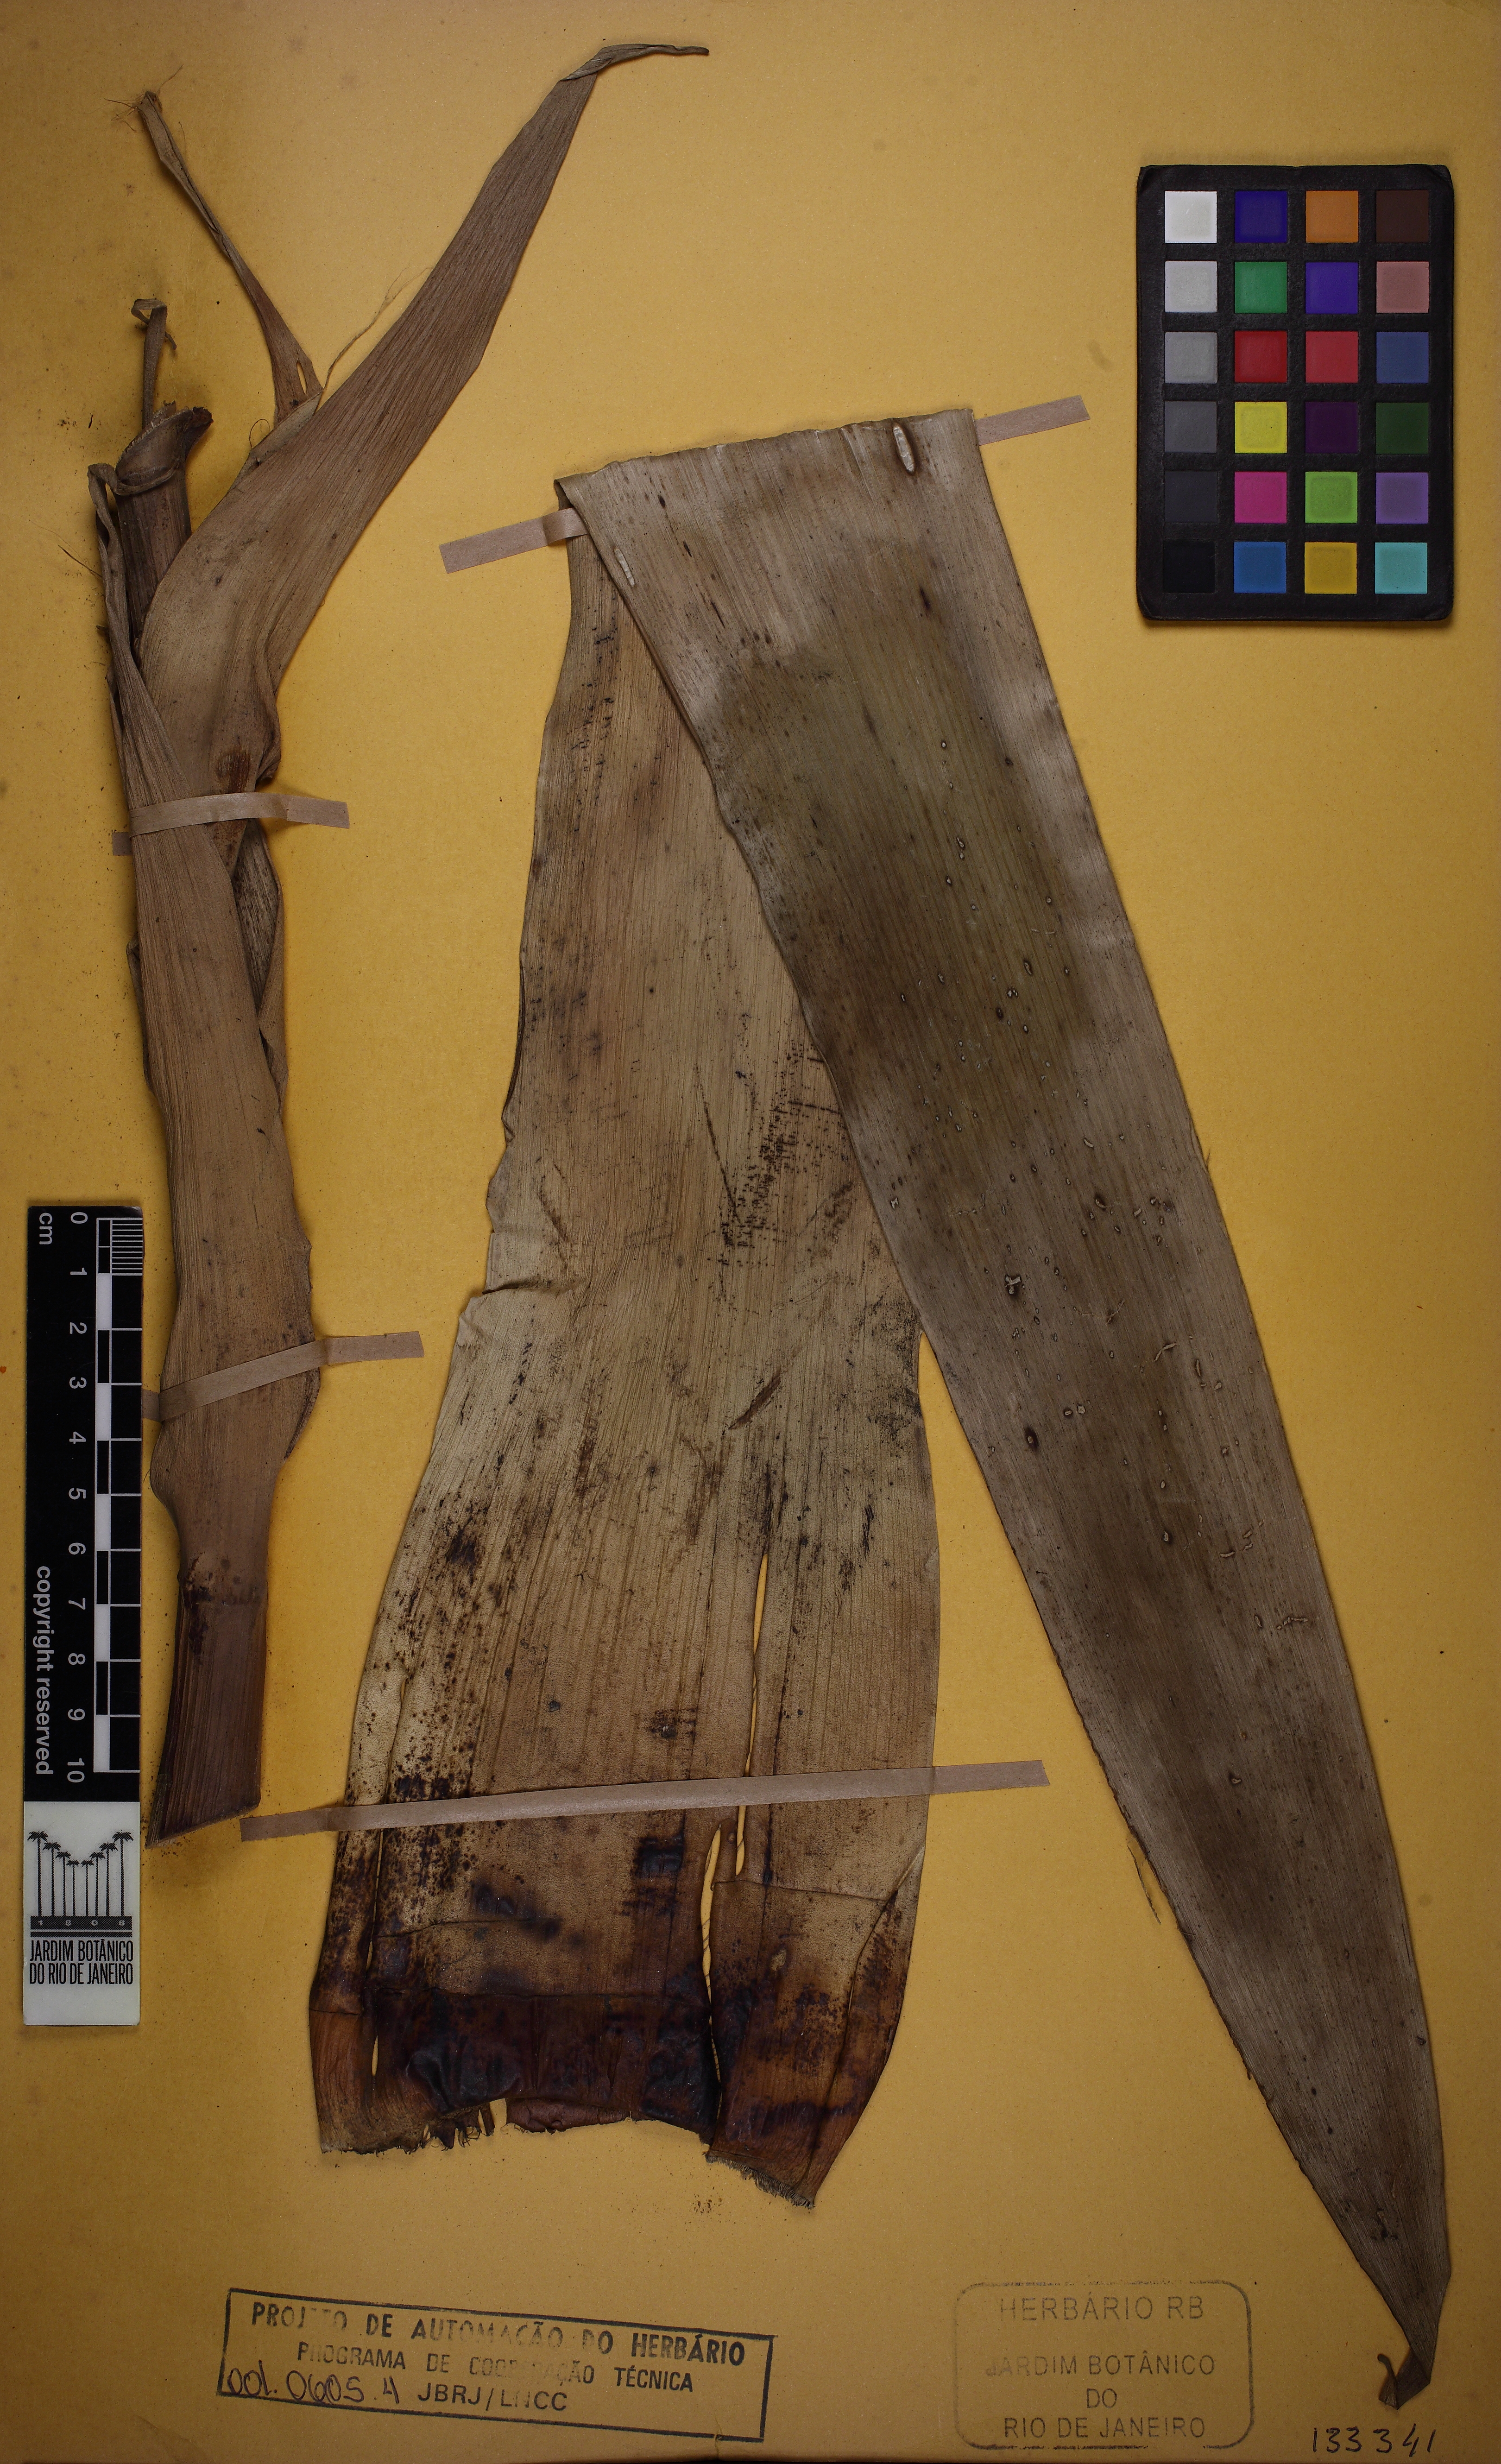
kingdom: Plantae
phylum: Tracheophyta
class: Liliopsida
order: Poales
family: Bromeliaceae
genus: Alcantarea
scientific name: Alcantarea glaziouana
